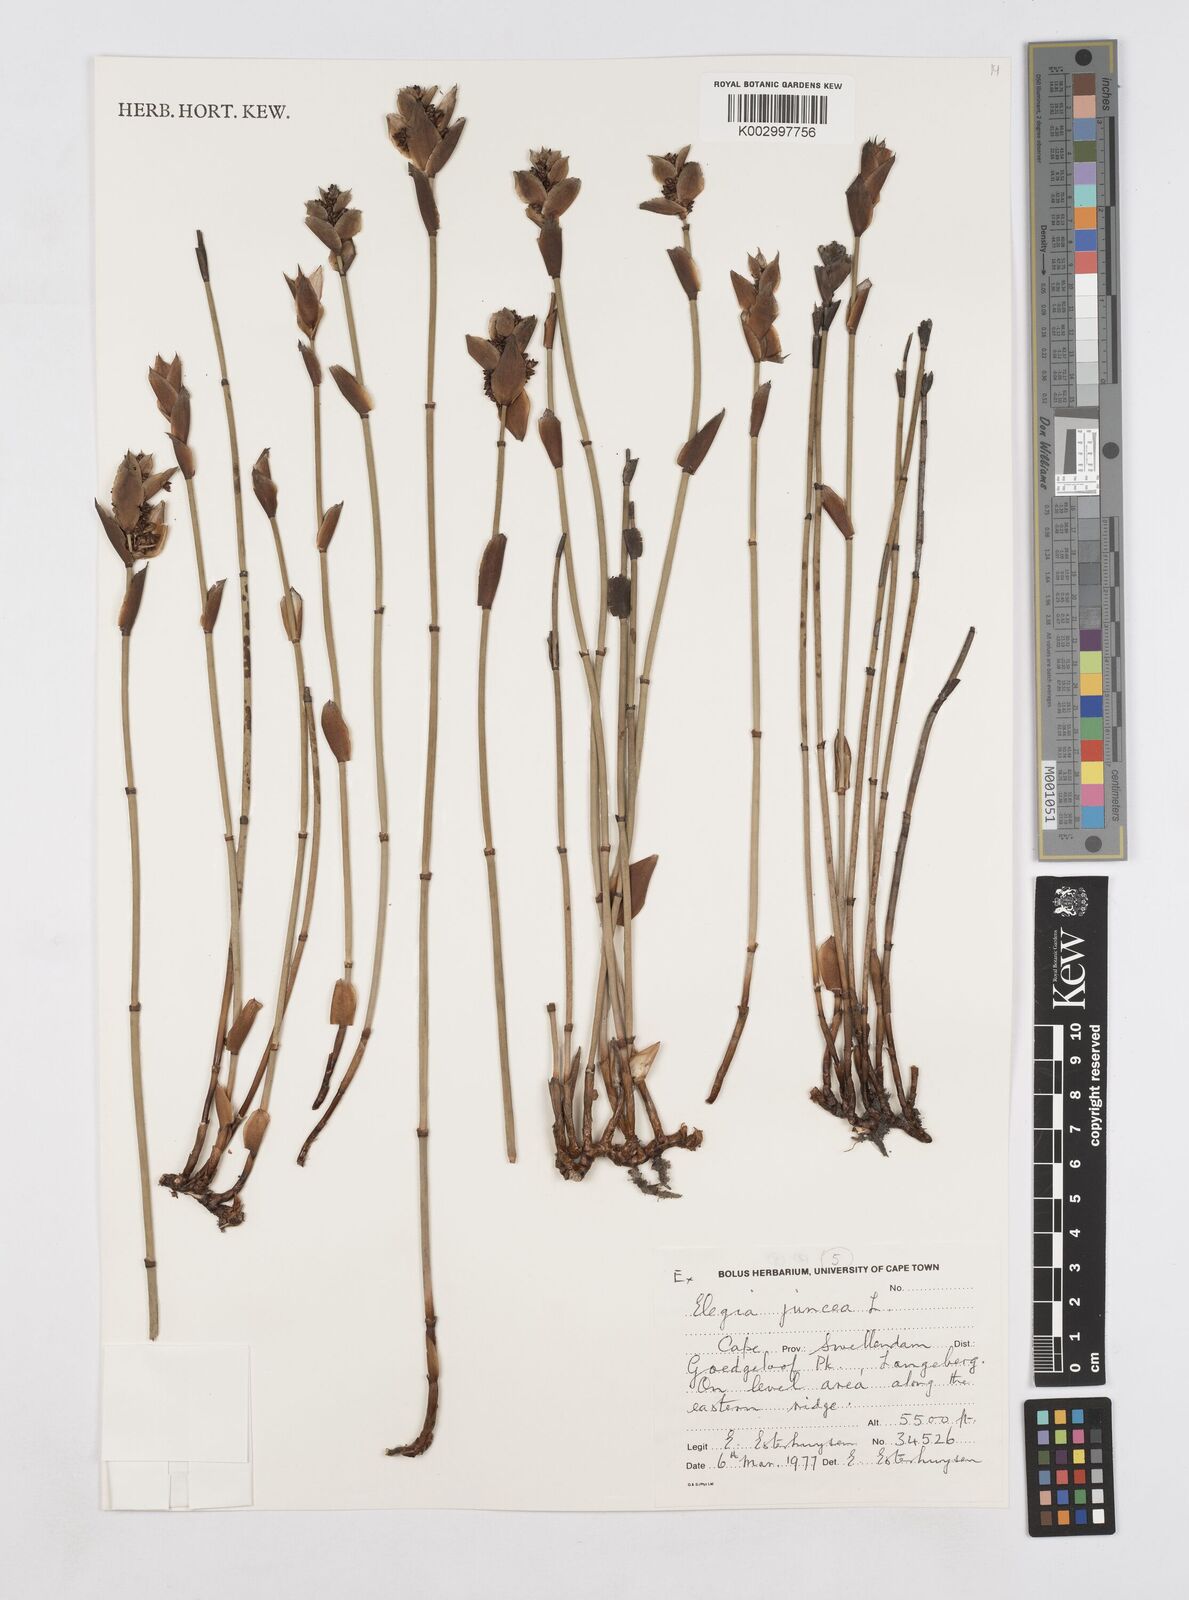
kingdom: Plantae
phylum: Tracheophyta
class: Liliopsida
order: Poales
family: Restionaceae
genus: Elegia
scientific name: Elegia juncea
